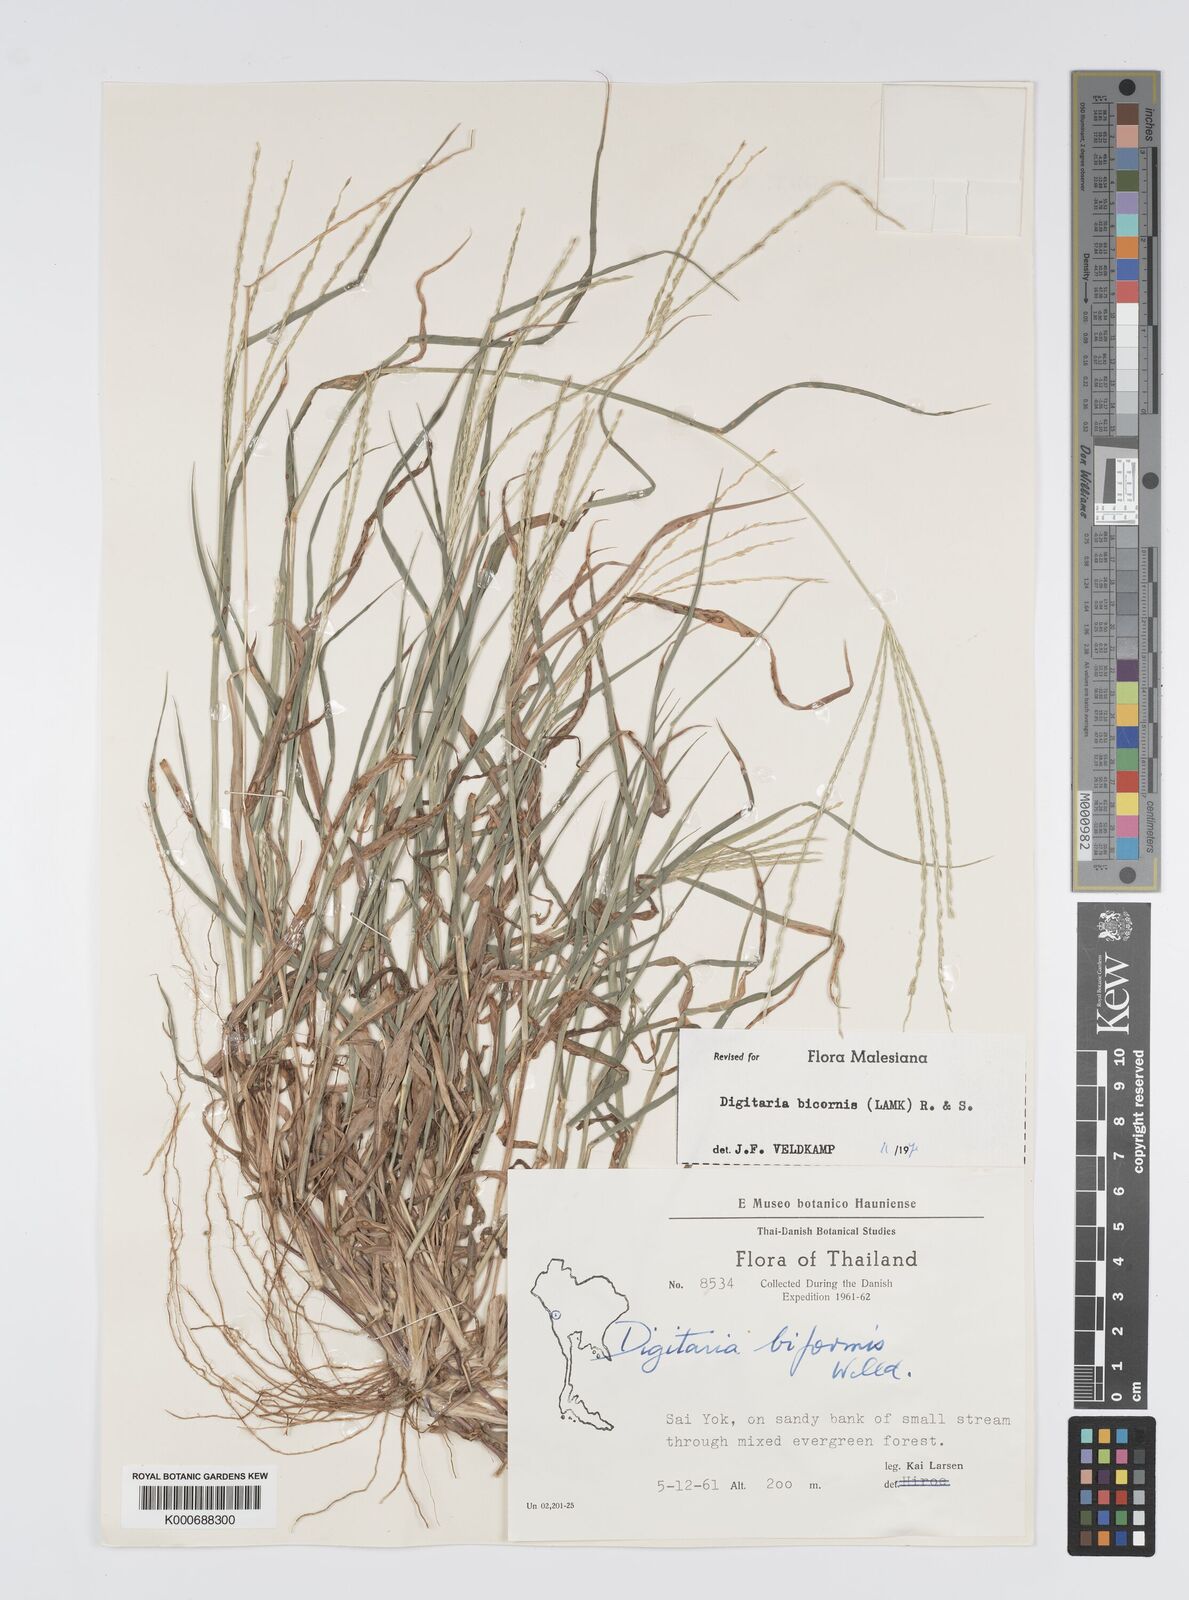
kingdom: Plantae
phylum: Tracheophyta
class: Liliopsida
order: Poales
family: Poaceae
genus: Digitaria
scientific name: Digitaria bicornis
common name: Asian crabgrass
